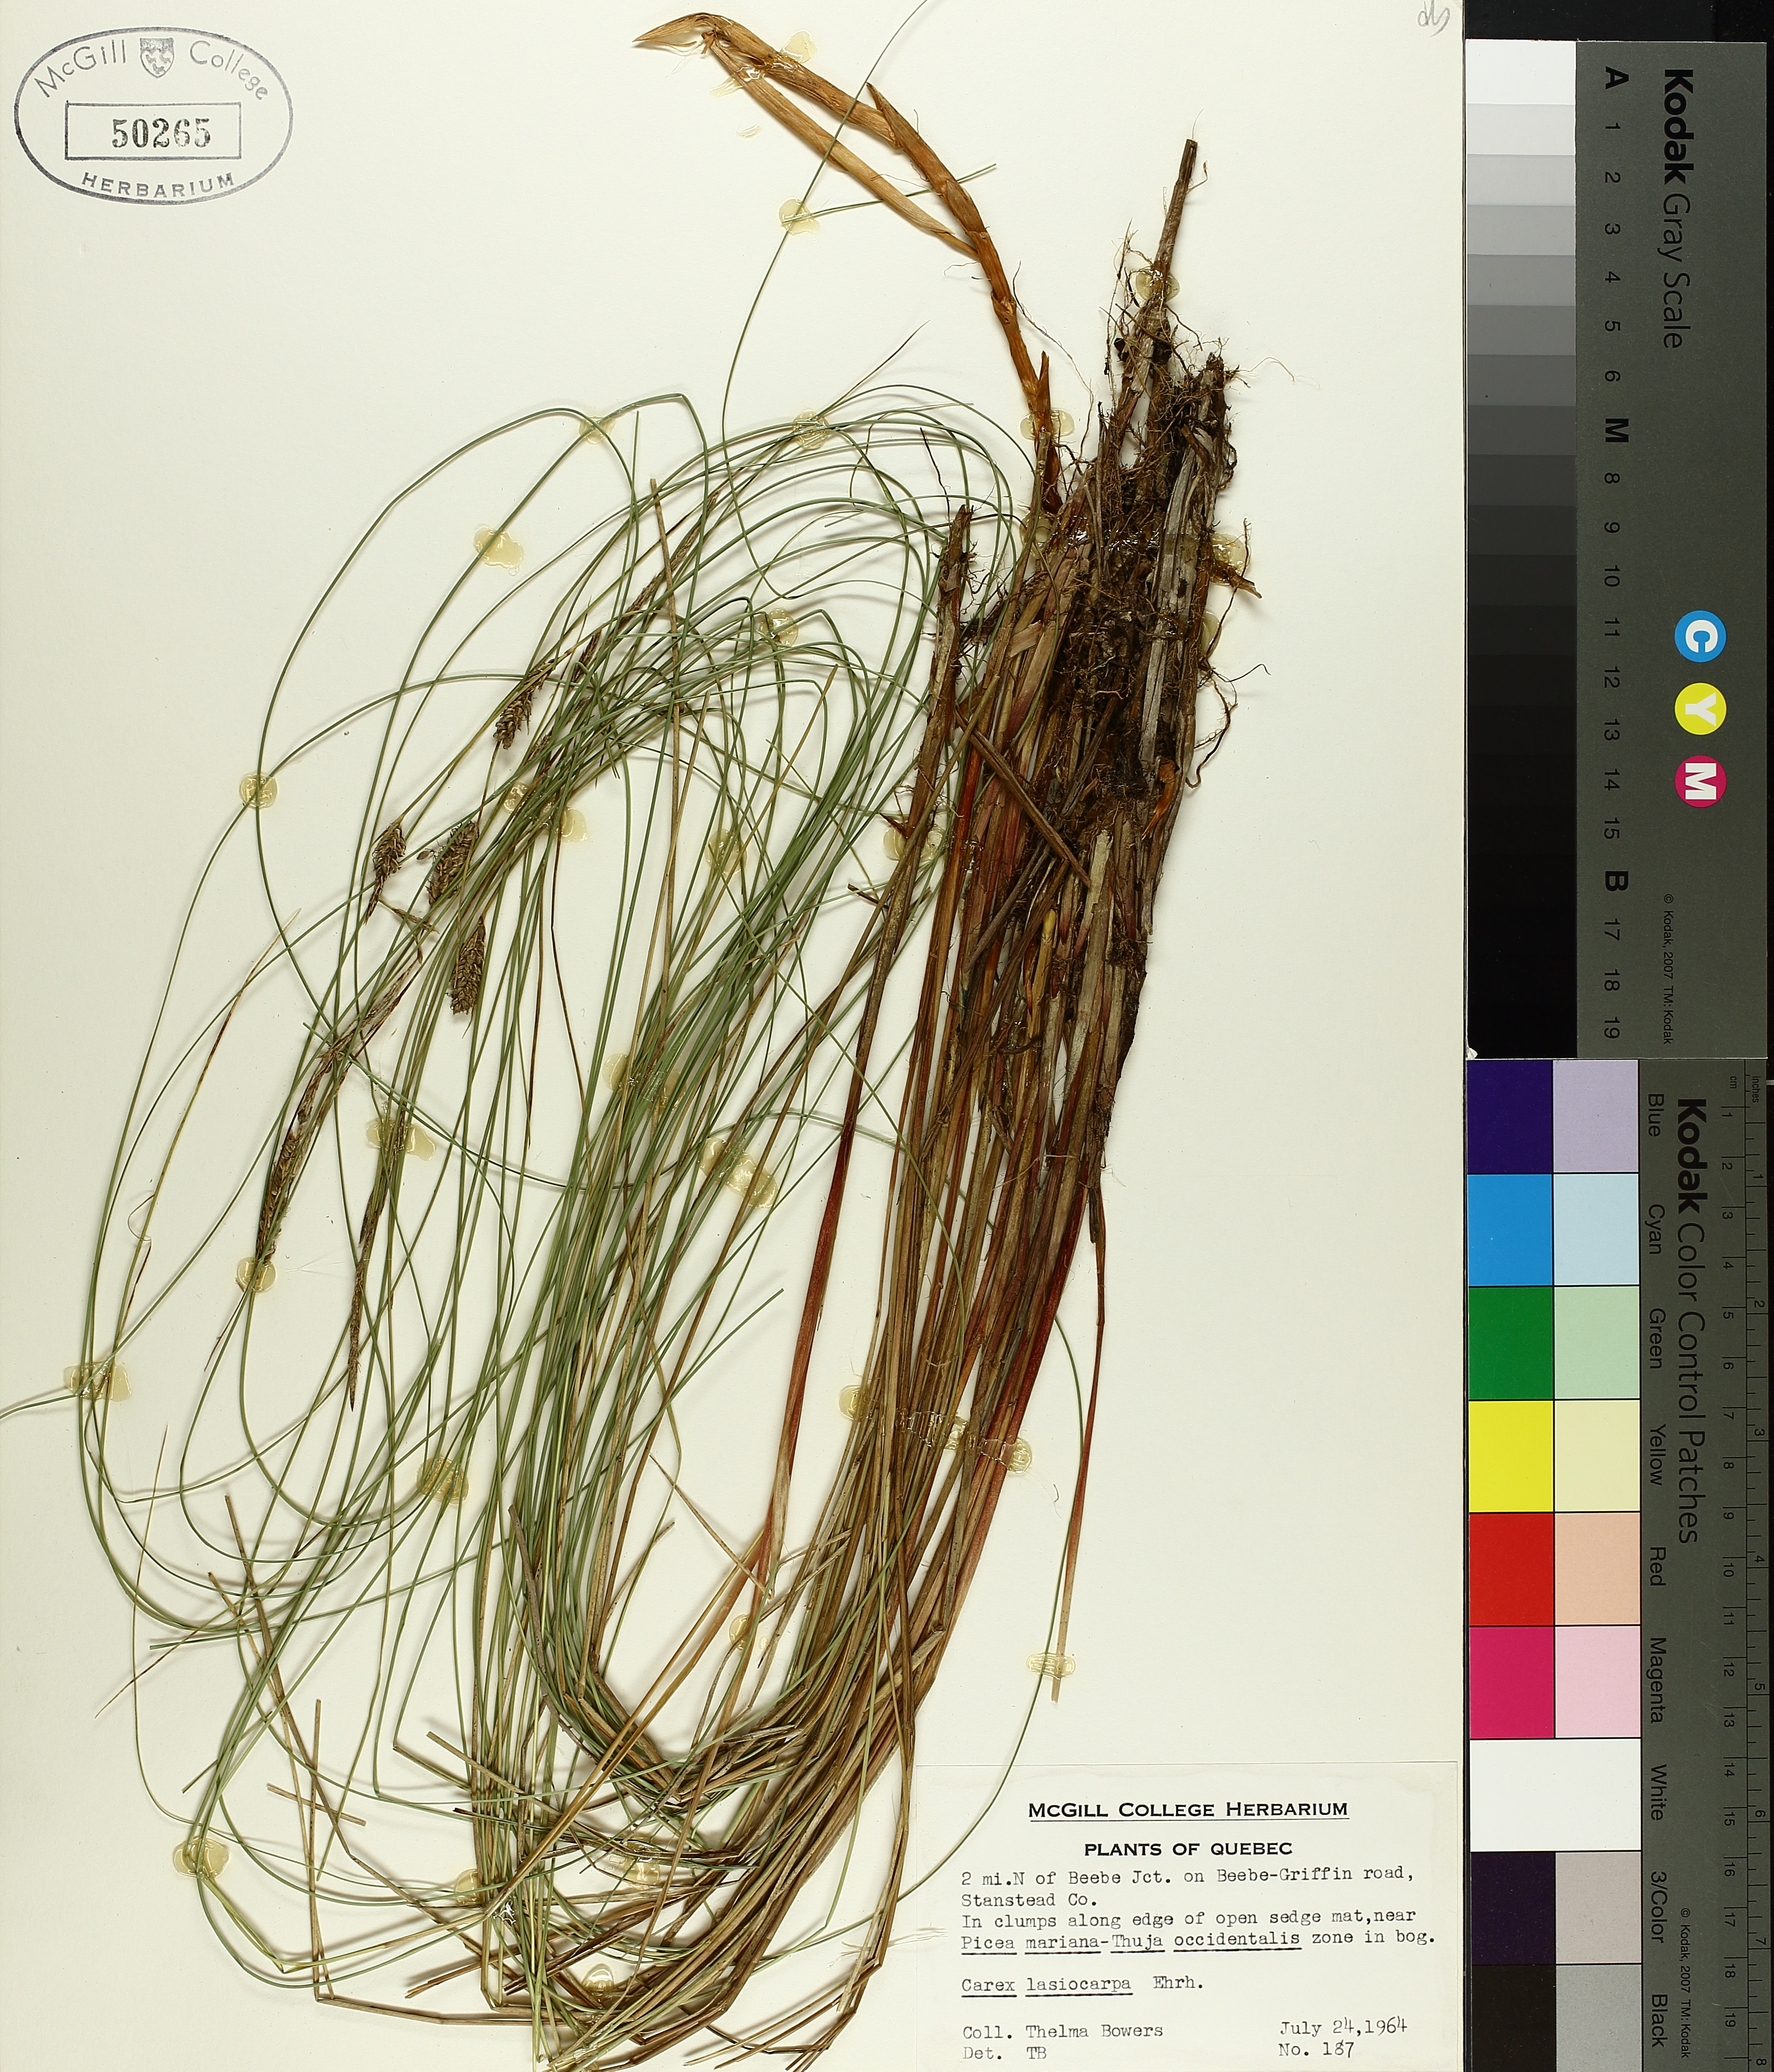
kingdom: Plantae
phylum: Tracheophyta
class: Liliopsida
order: Poales
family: Cyperaceae
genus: Carex
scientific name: Carex lasiocarpa
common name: Slender sedge
